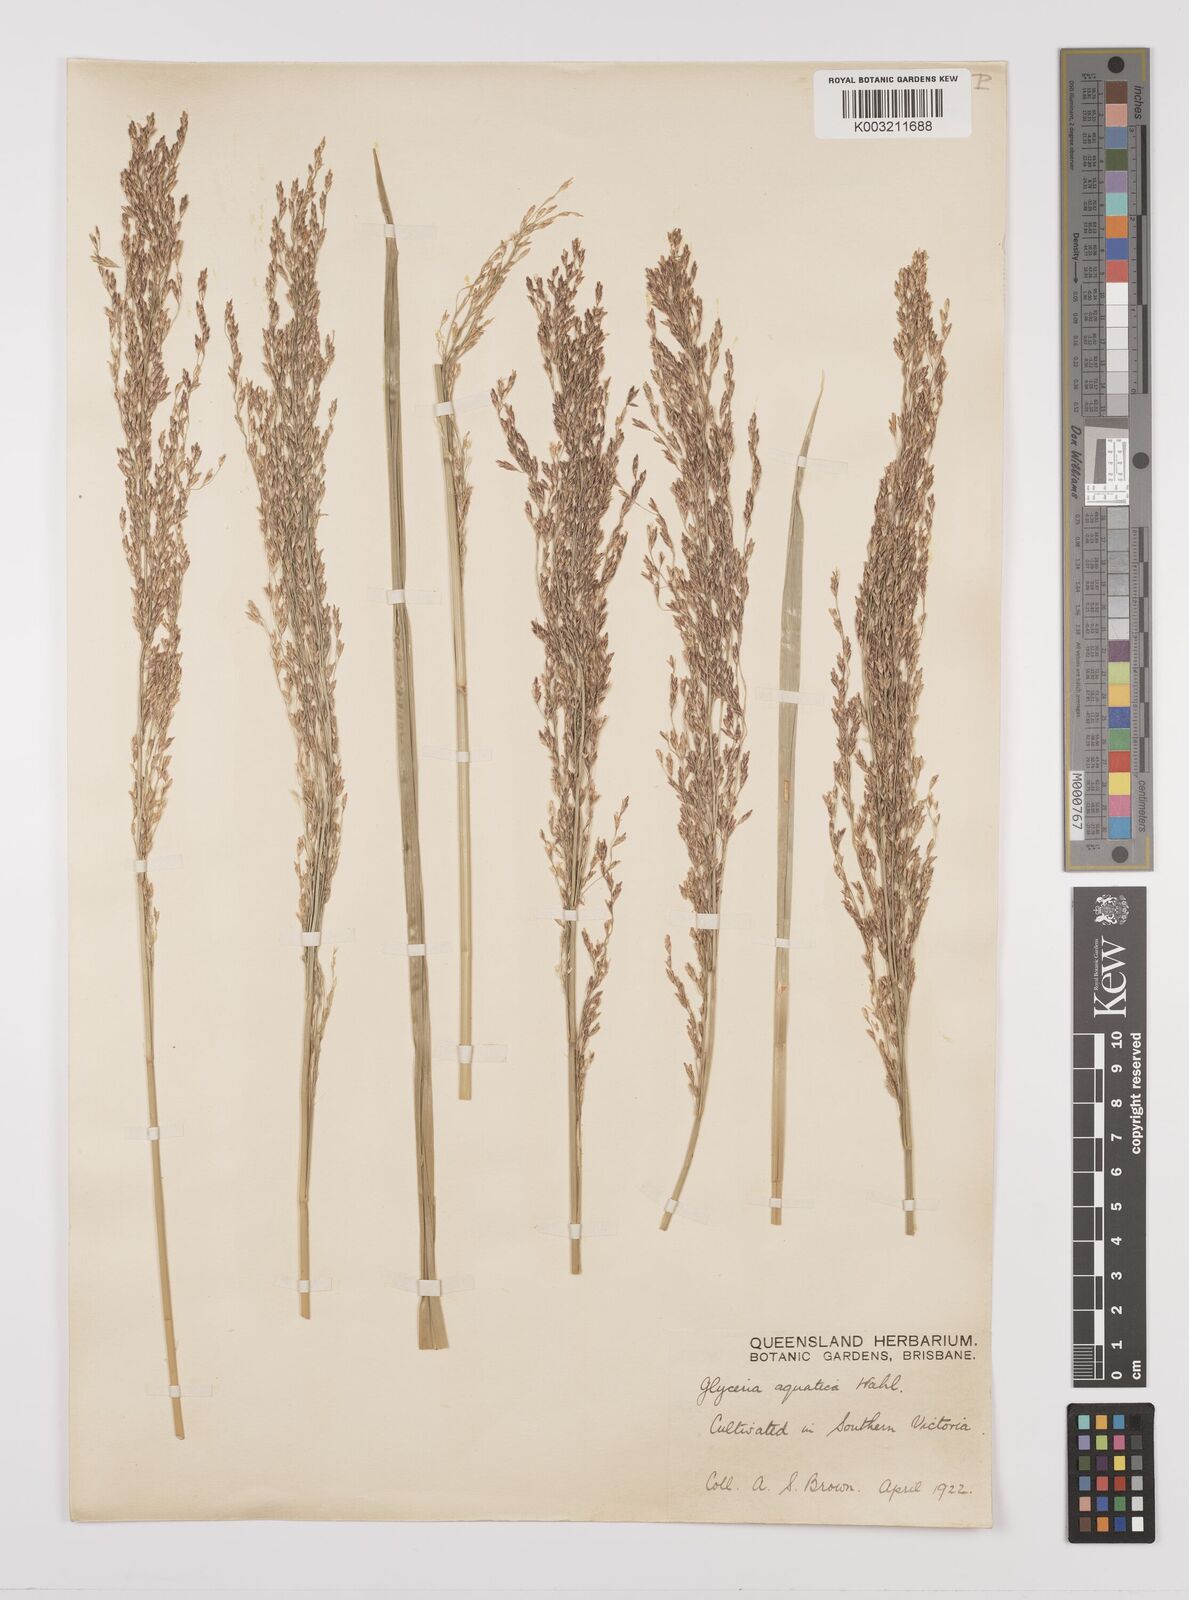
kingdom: Plantae
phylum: Tracheophyta
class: Liliopsida
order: Poales
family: Poaceae
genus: Glyceria
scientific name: Glyceria maxima
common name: Reed mannagrass
